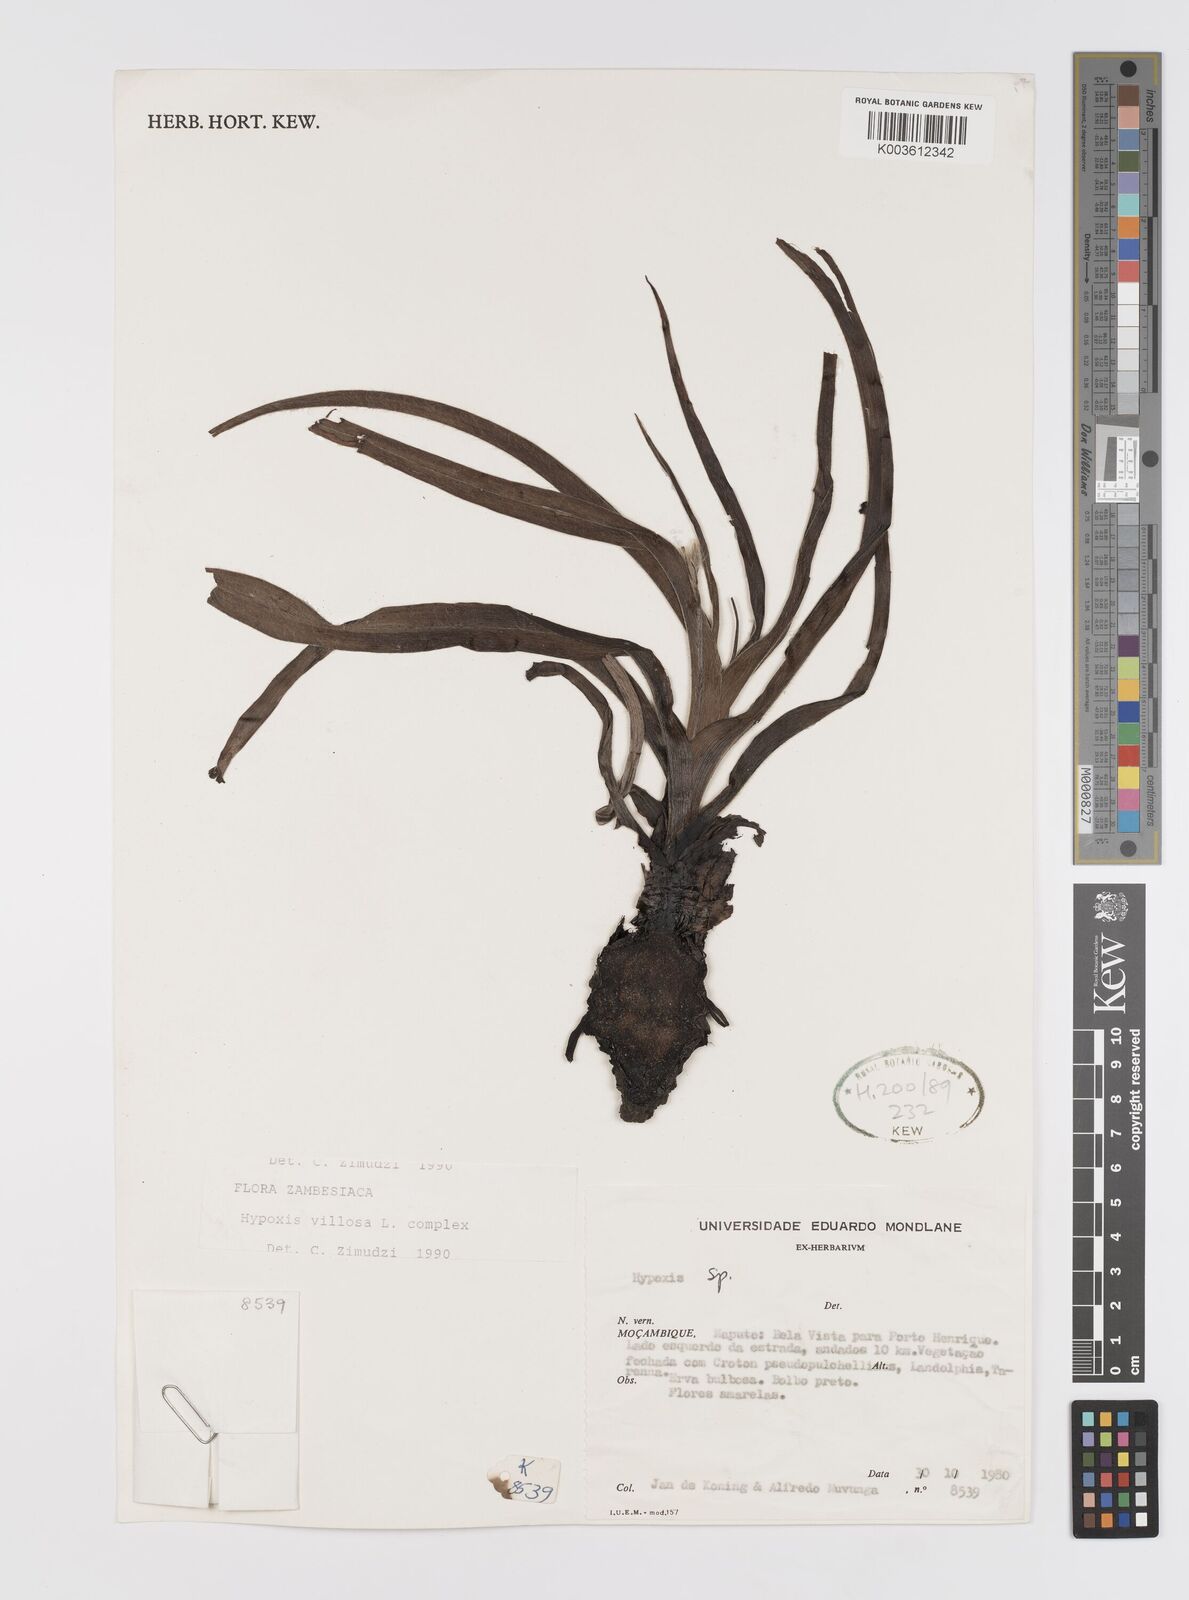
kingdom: Plantae
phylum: Tracheophyta
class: Liliopsida
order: Asparagales
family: Hypoxidaceae
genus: Hypoxis
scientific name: Hypoxis hemerocallidea
